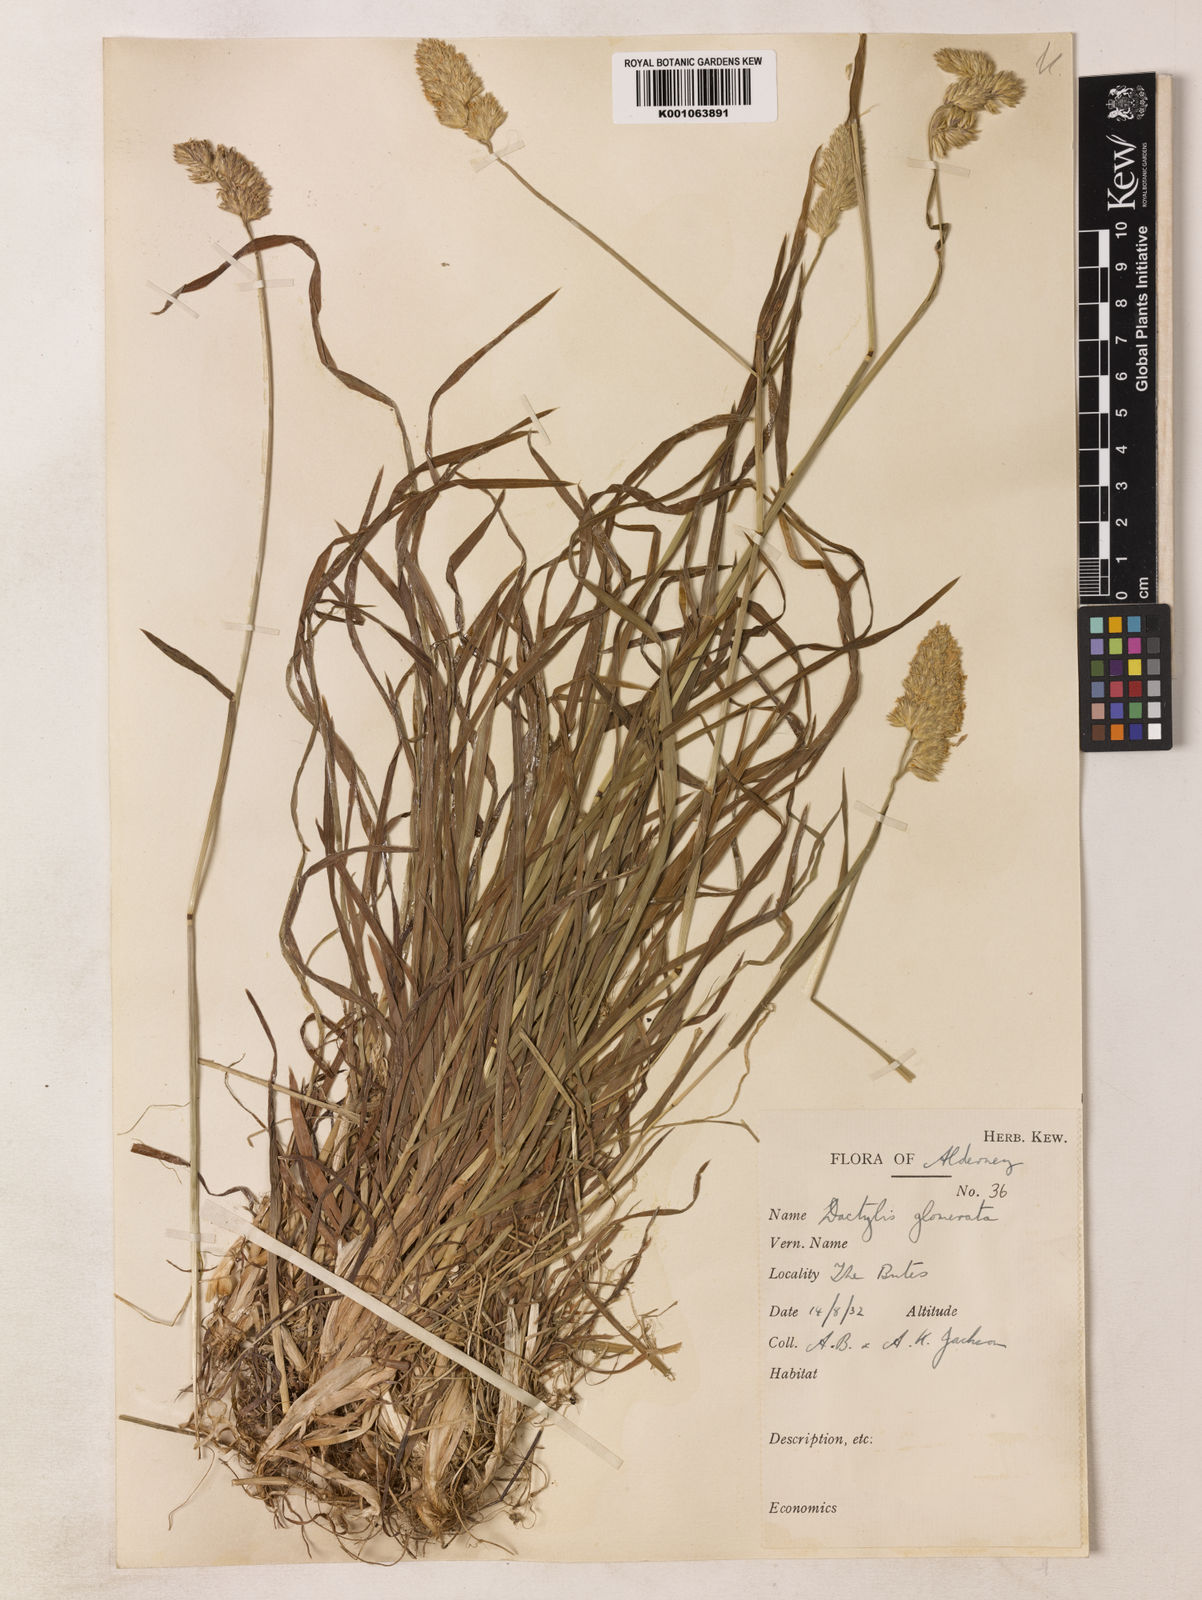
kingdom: Plantae
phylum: Tracheophyta
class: Liliopsida
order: Poales
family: Poaceae
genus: Dactylis
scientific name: Dactylis glomerata
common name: Orchardgrass
